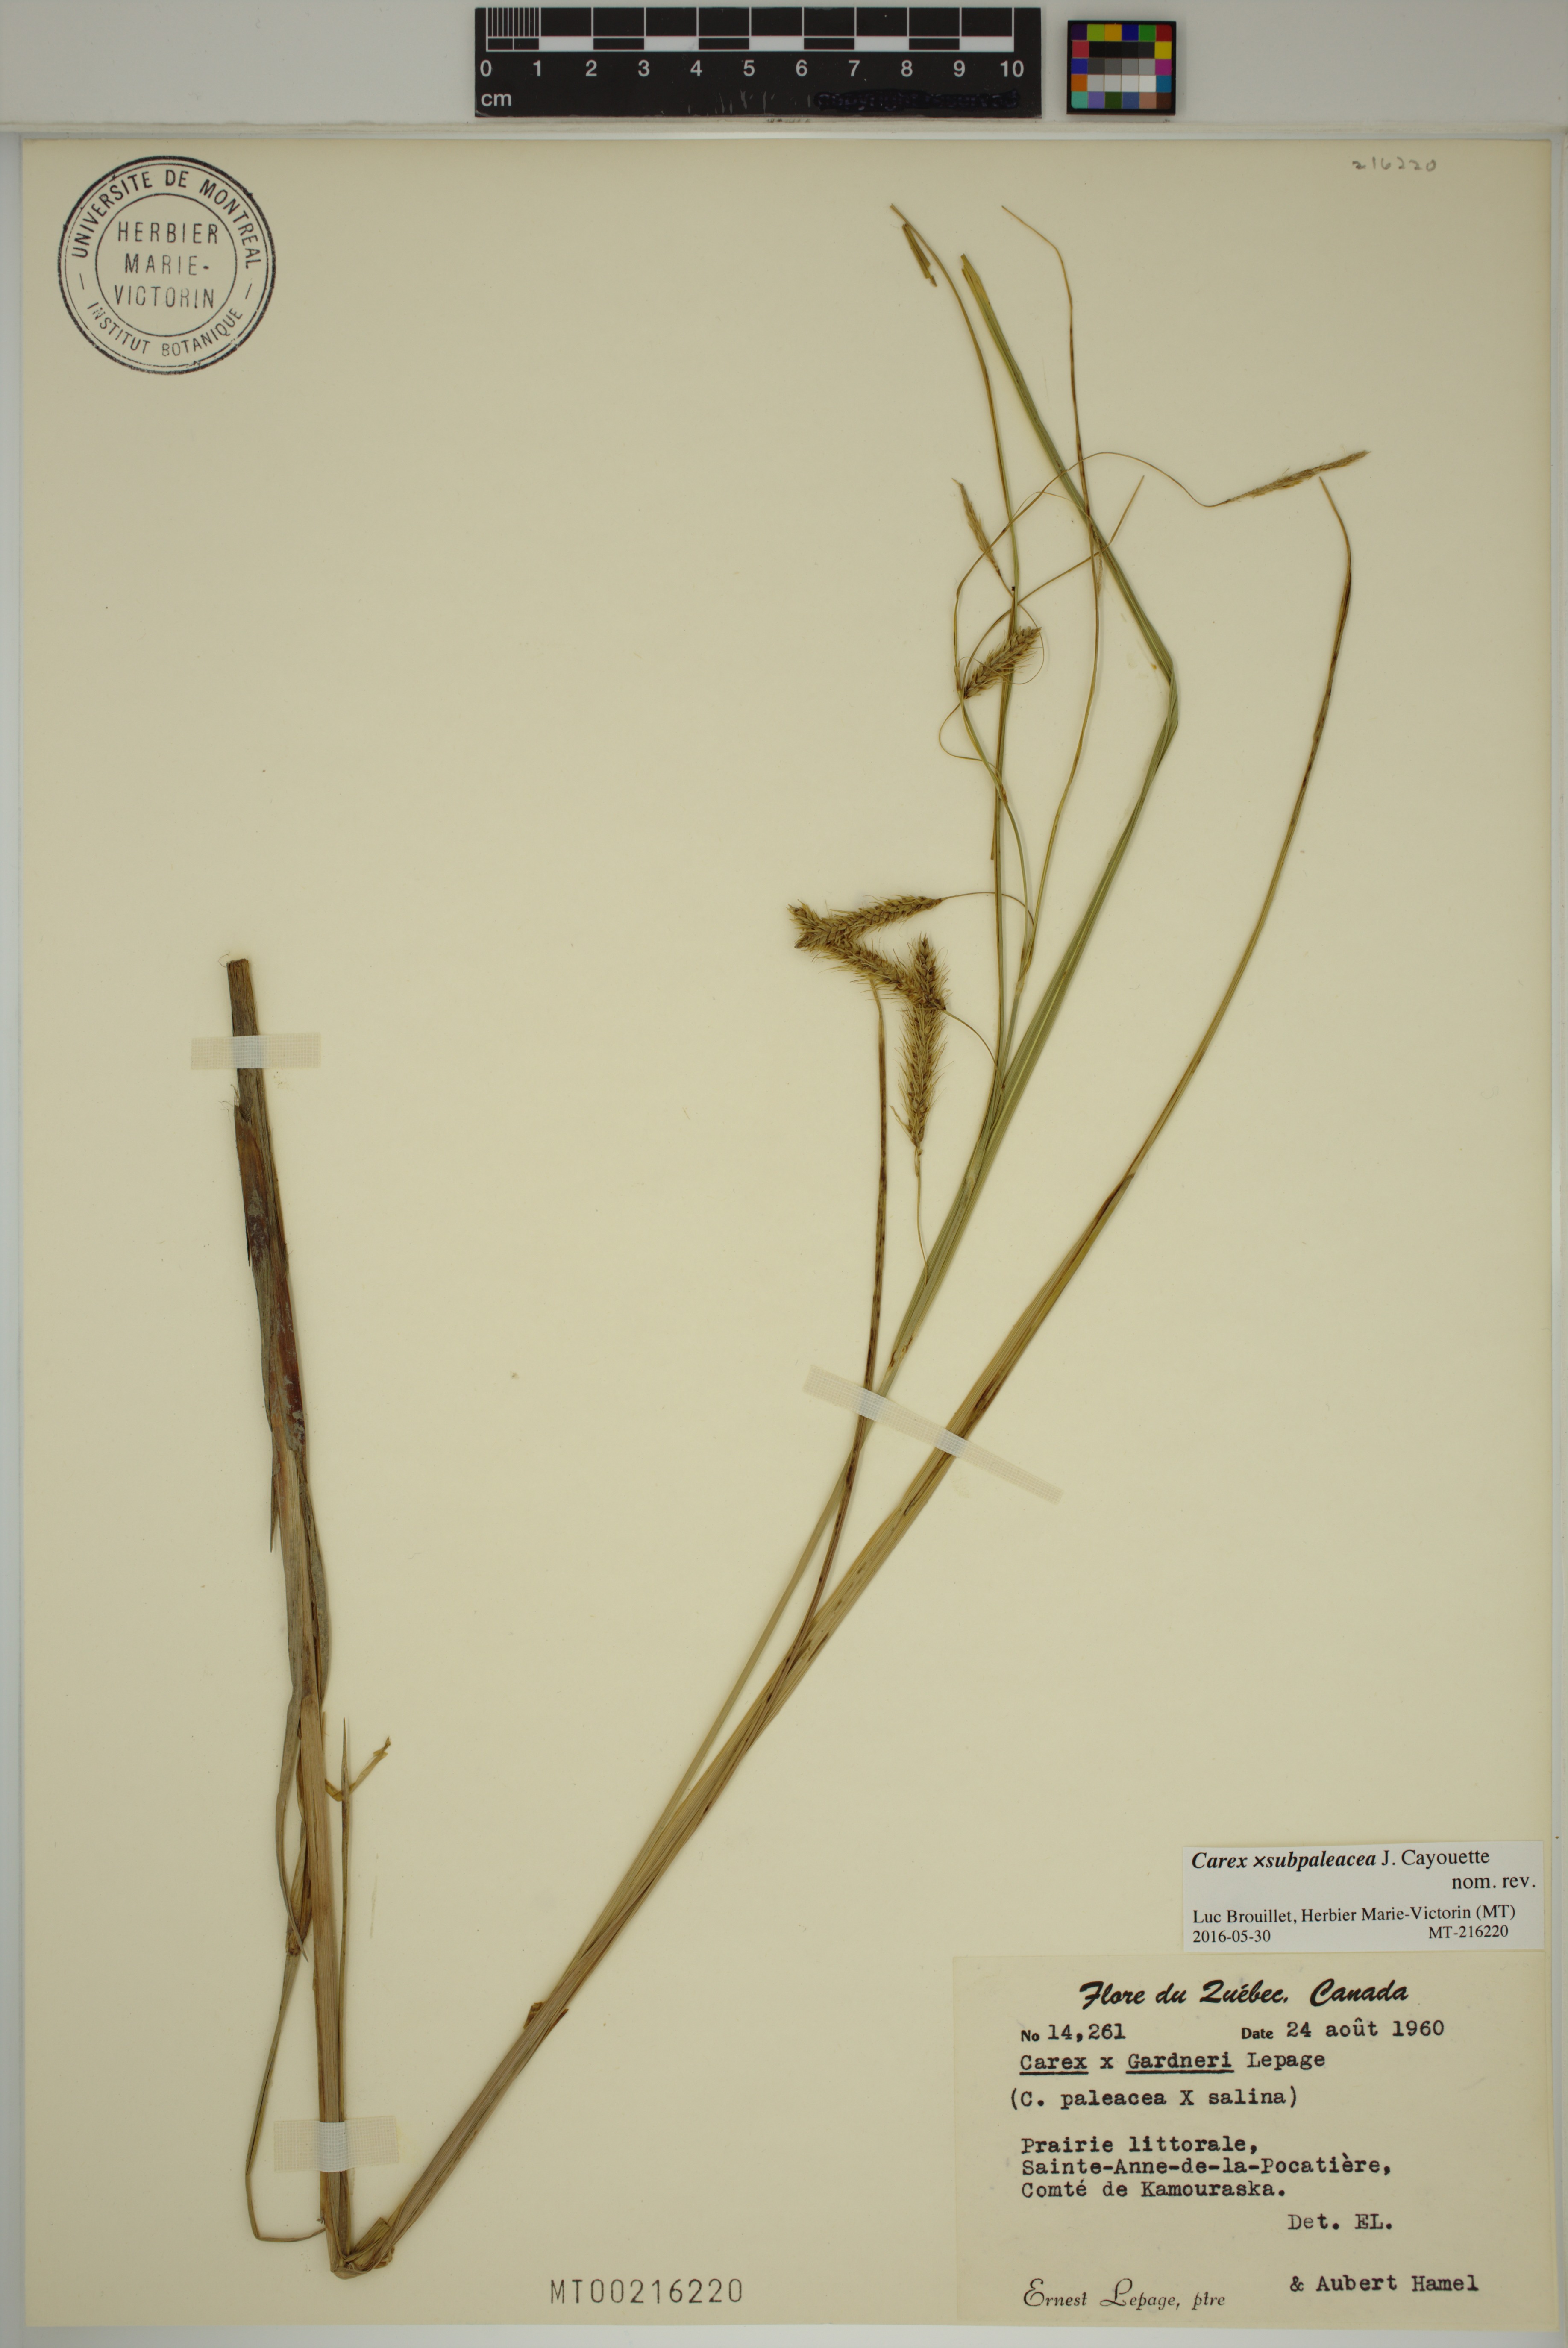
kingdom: Plantae
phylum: Tracheophyta
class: Liliopsida
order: Poales
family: Cyperaceae
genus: Carex
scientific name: Carex subpaleacea
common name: Gardner's sedge
